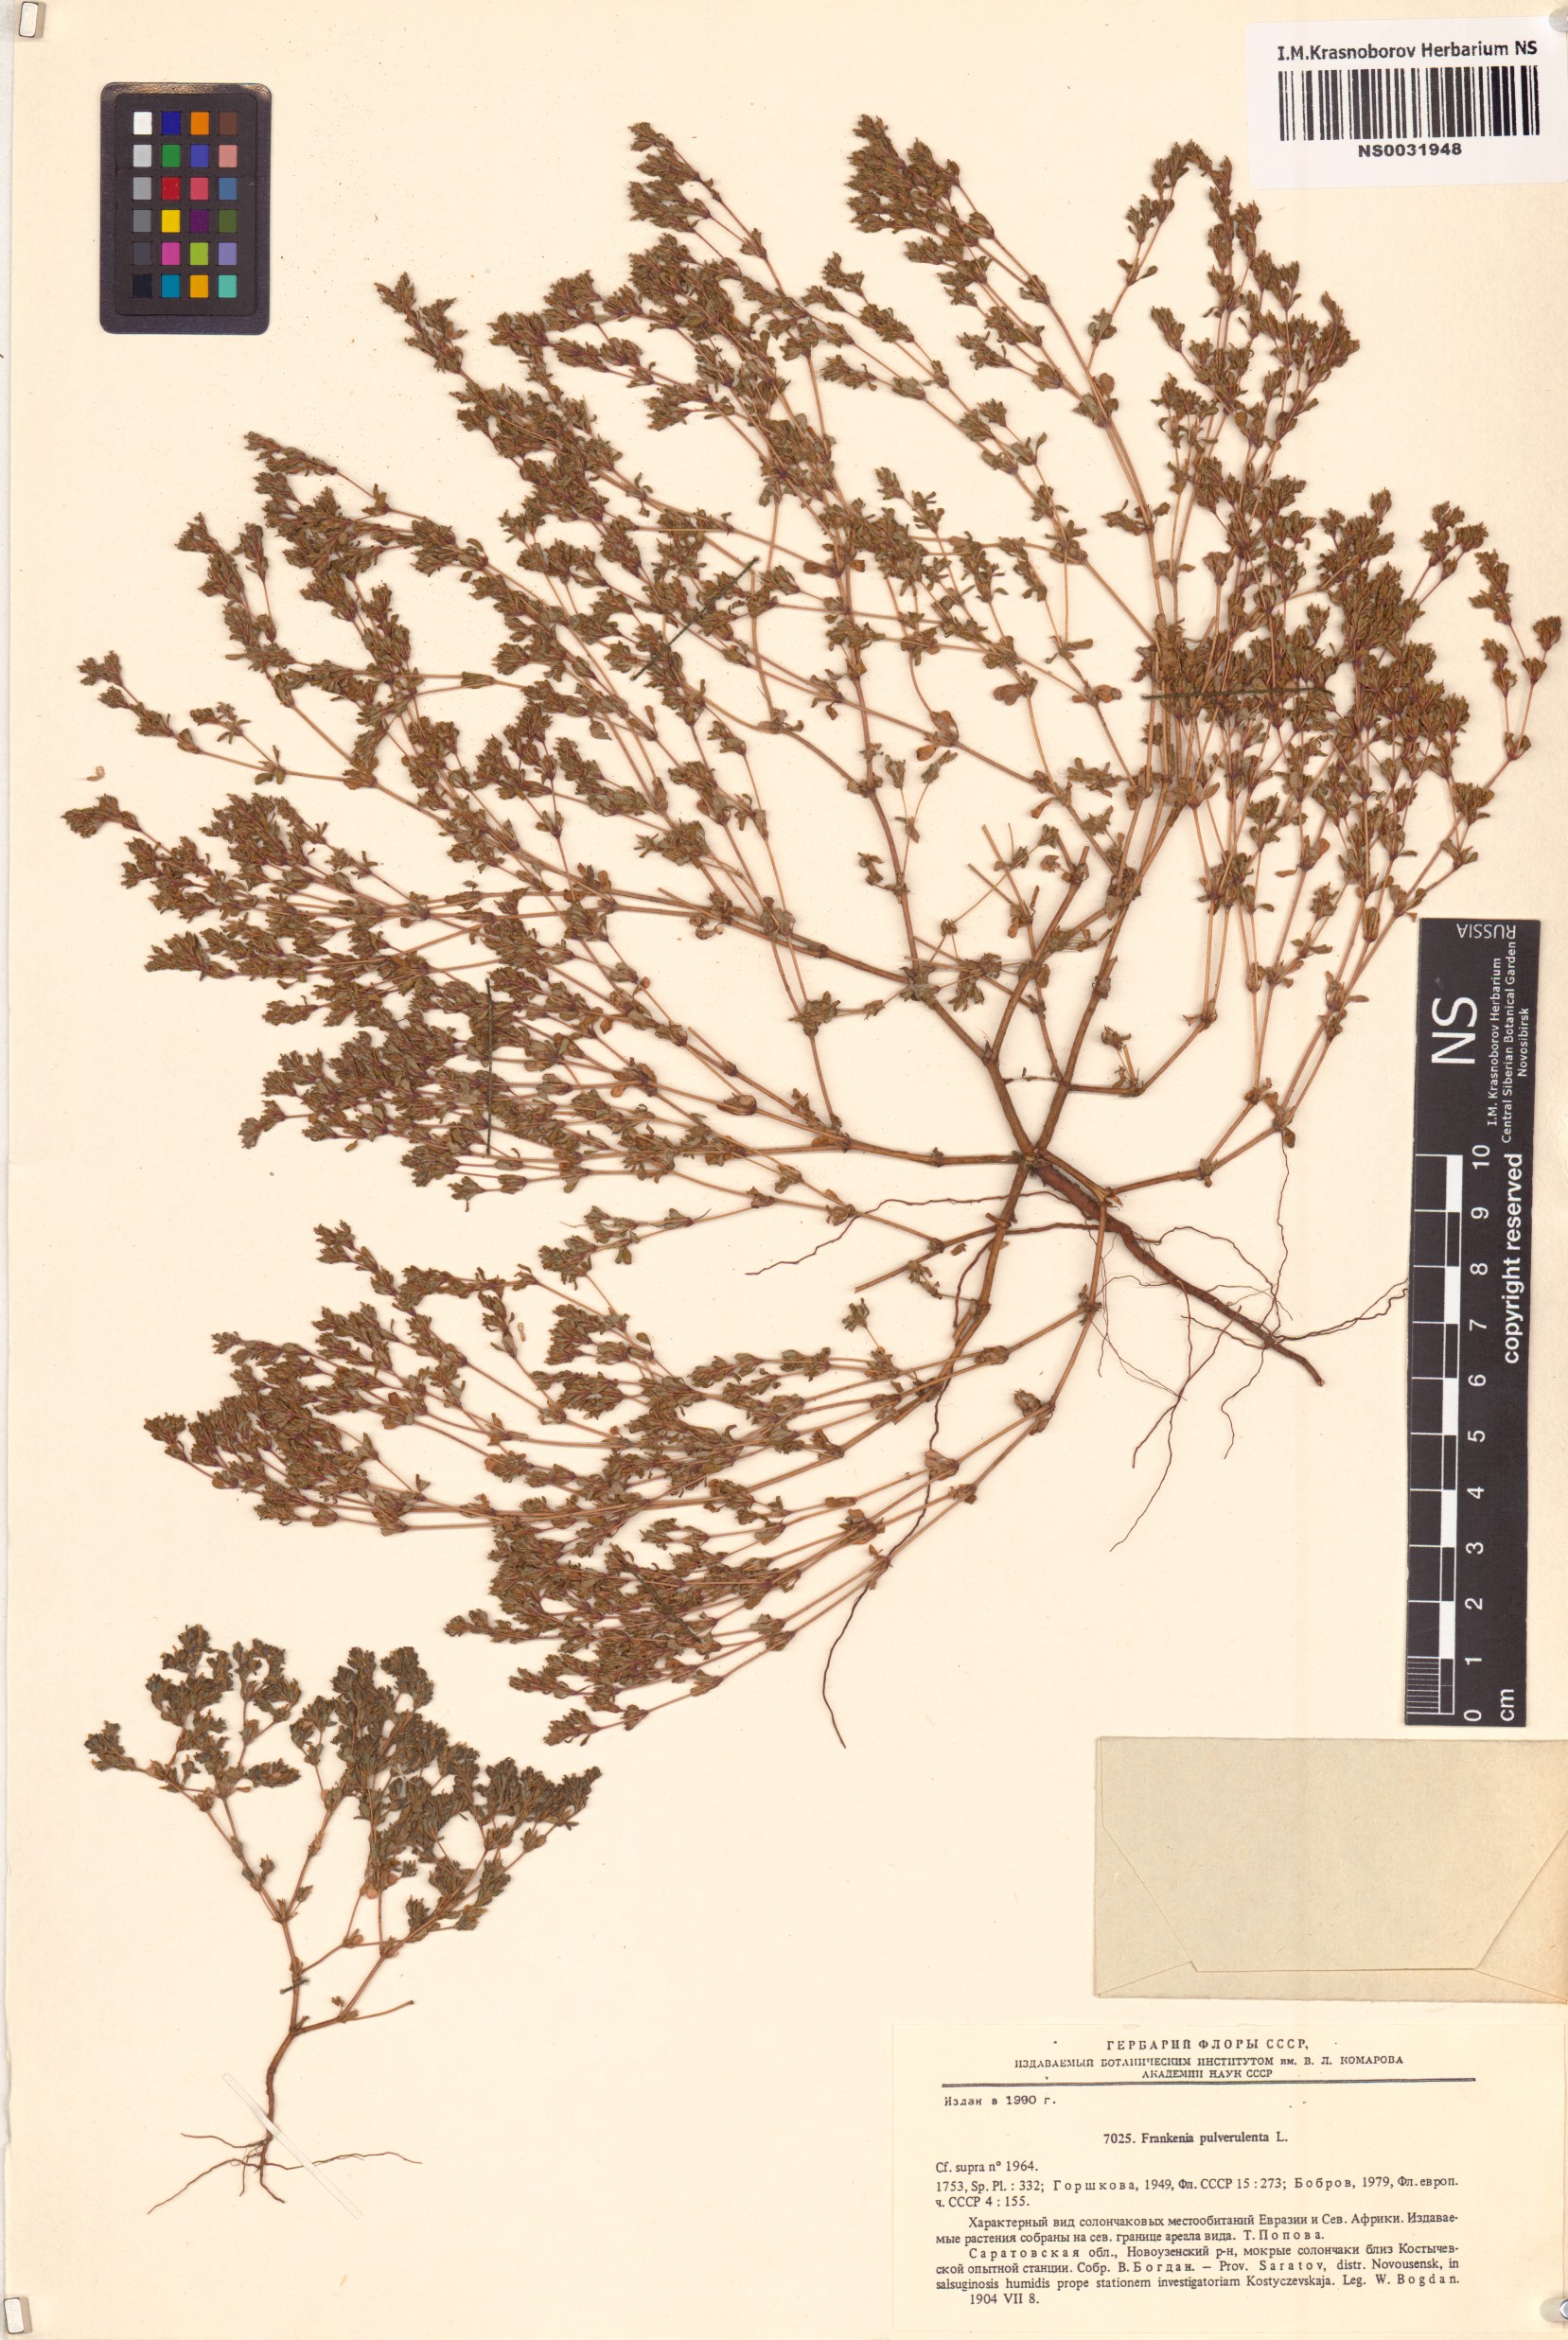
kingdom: Plantae
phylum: Tracheophyta
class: Magnoliopsida
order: Caryophyllales
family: Frankeniaceae
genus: Frankenia
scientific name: Frankenia pulverulenta
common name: European seaheath
